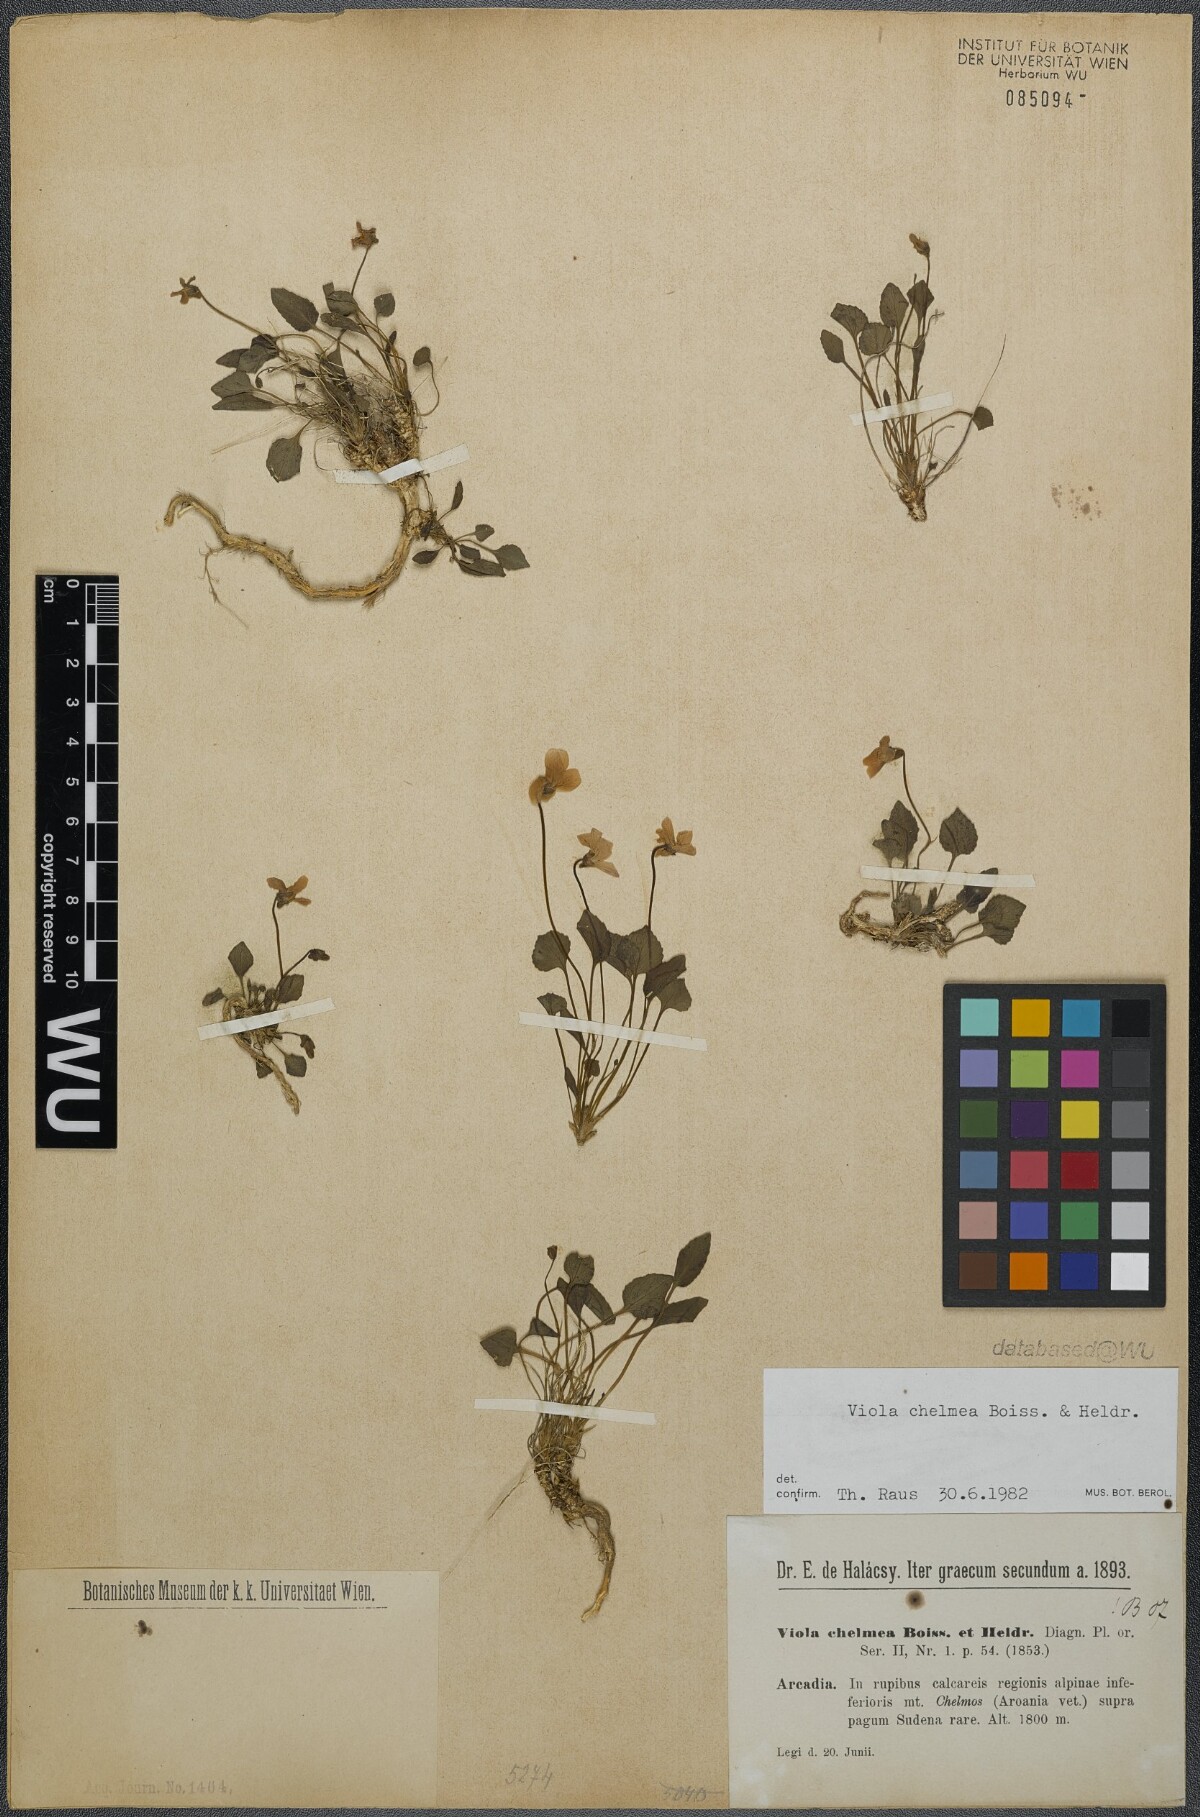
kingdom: Plantae
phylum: Tracheophyta
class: Magnoliopsida
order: Malpighiales
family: Violaceae
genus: Viola
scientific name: Viola chelmea
